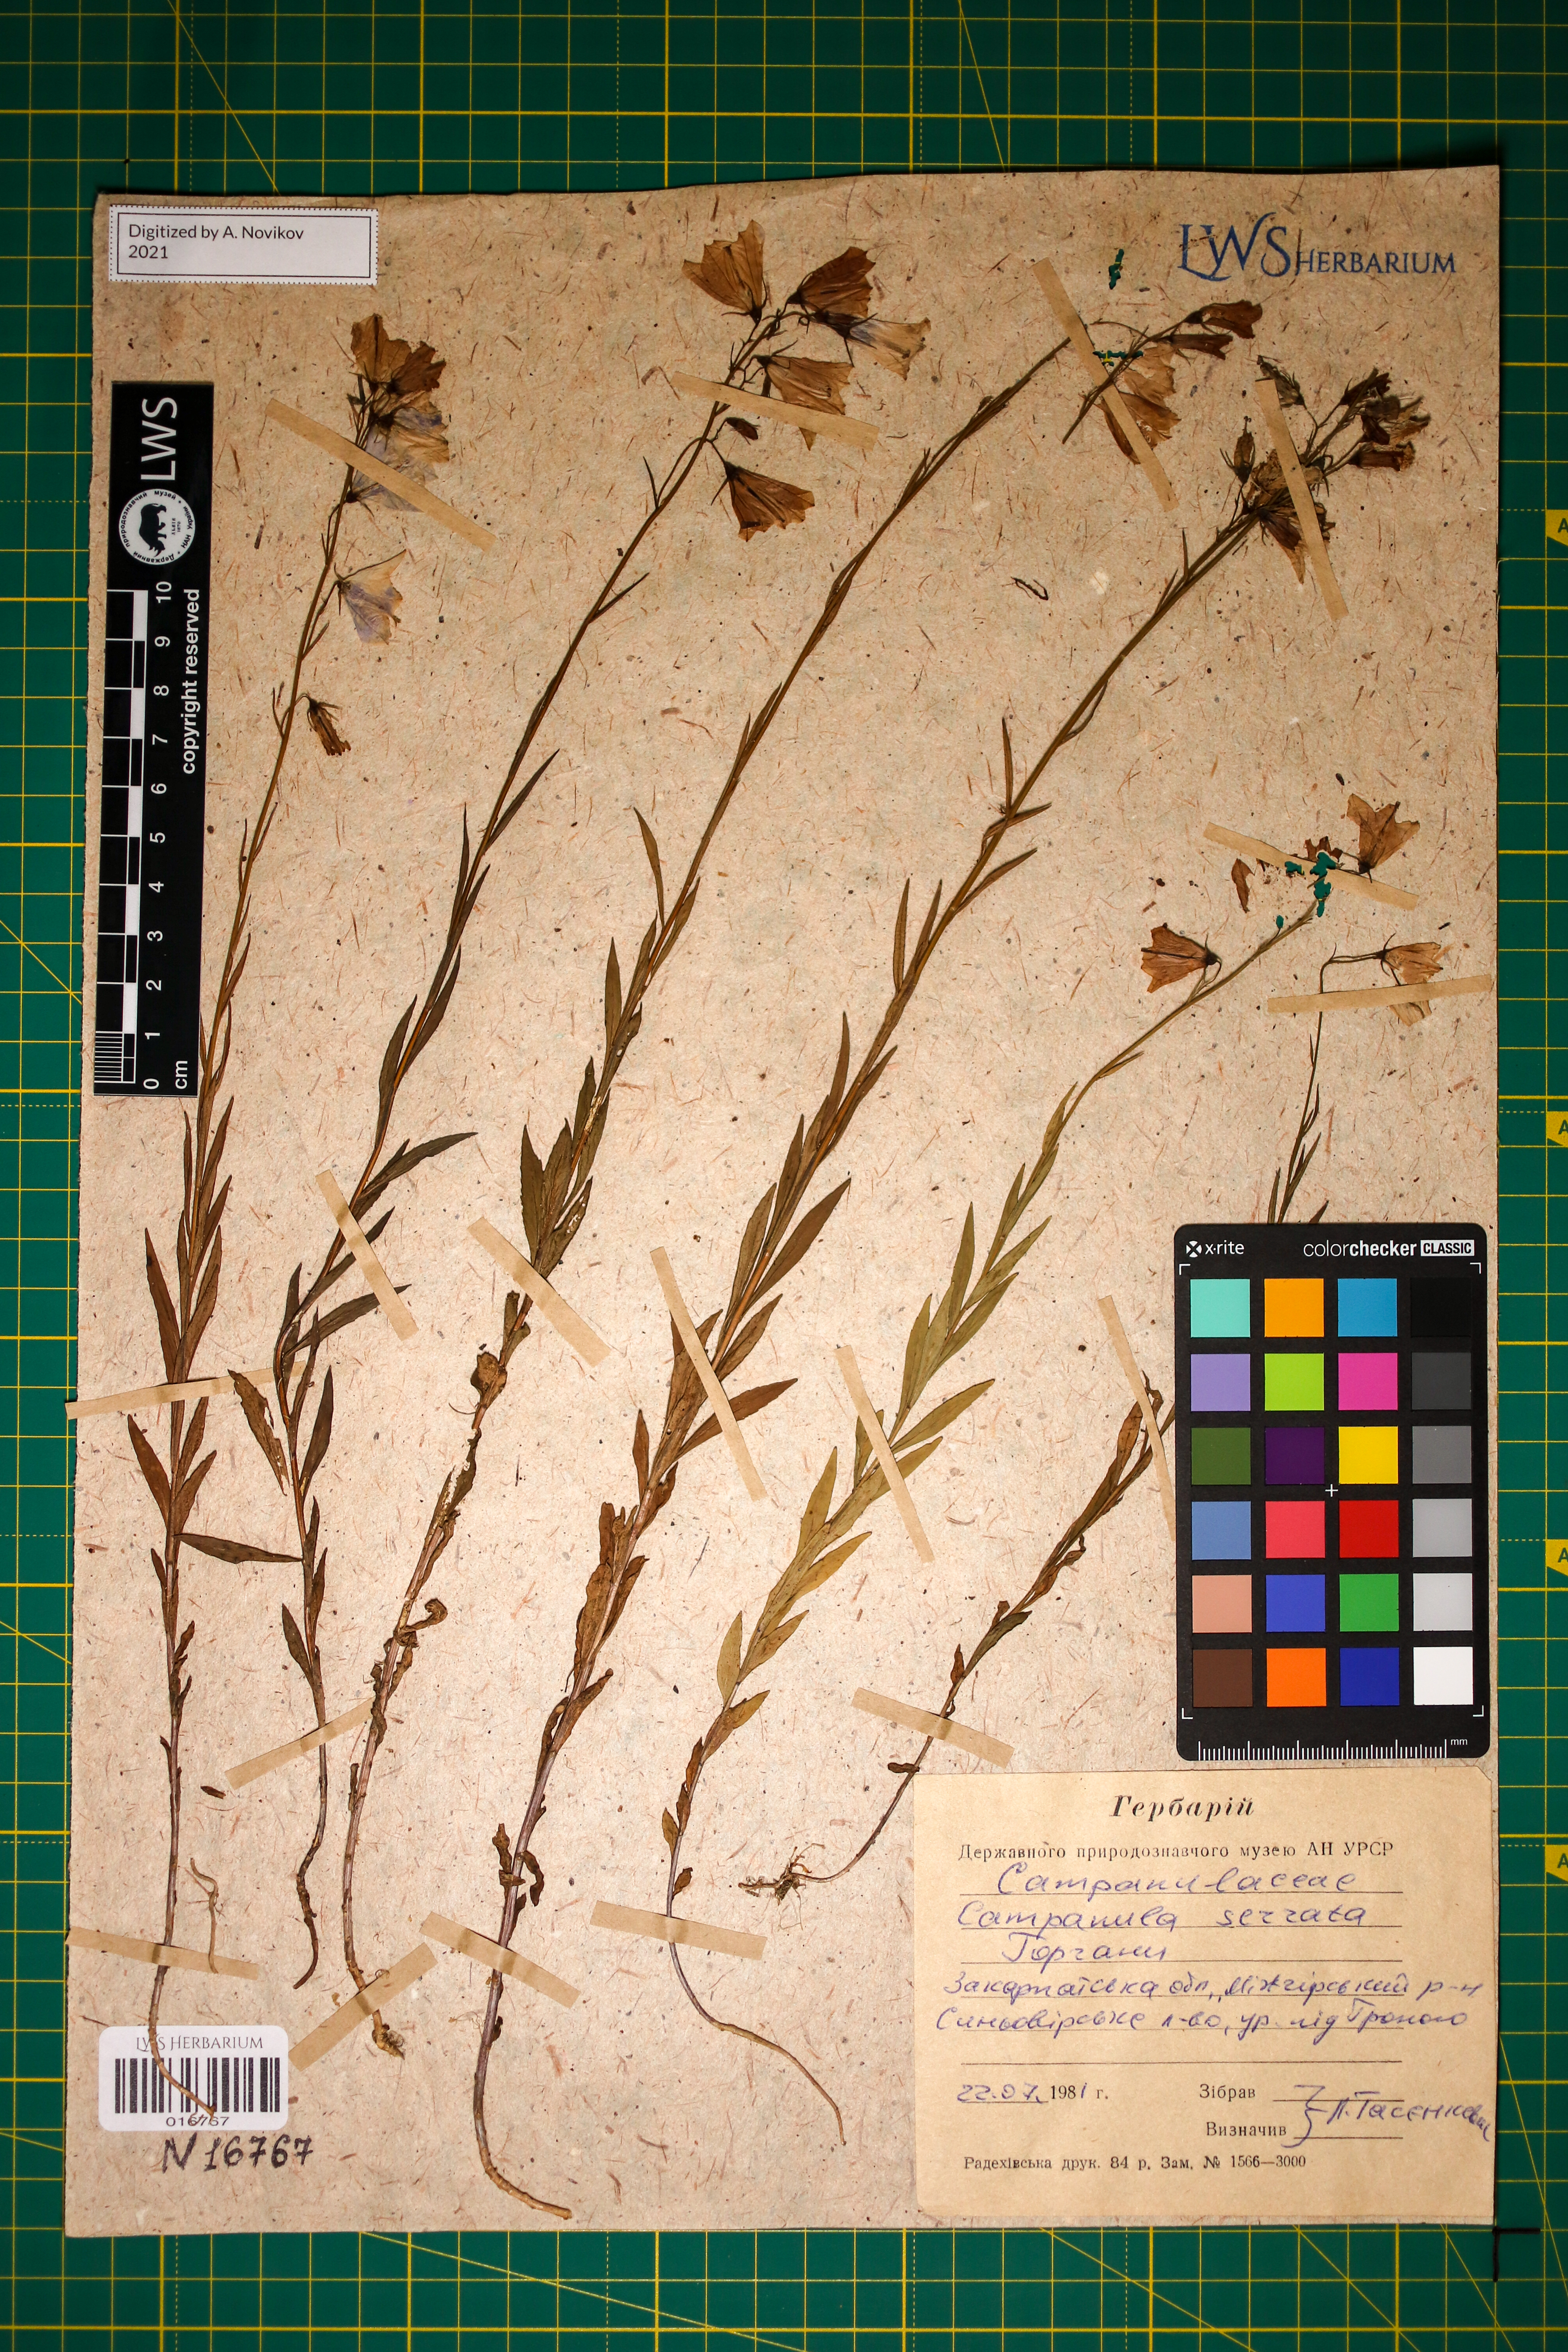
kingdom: Plantae
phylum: Tracheophyta
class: Magnoliopsida
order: Asterales
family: Campanulaceae
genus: Campanula
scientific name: Campanula serrata
